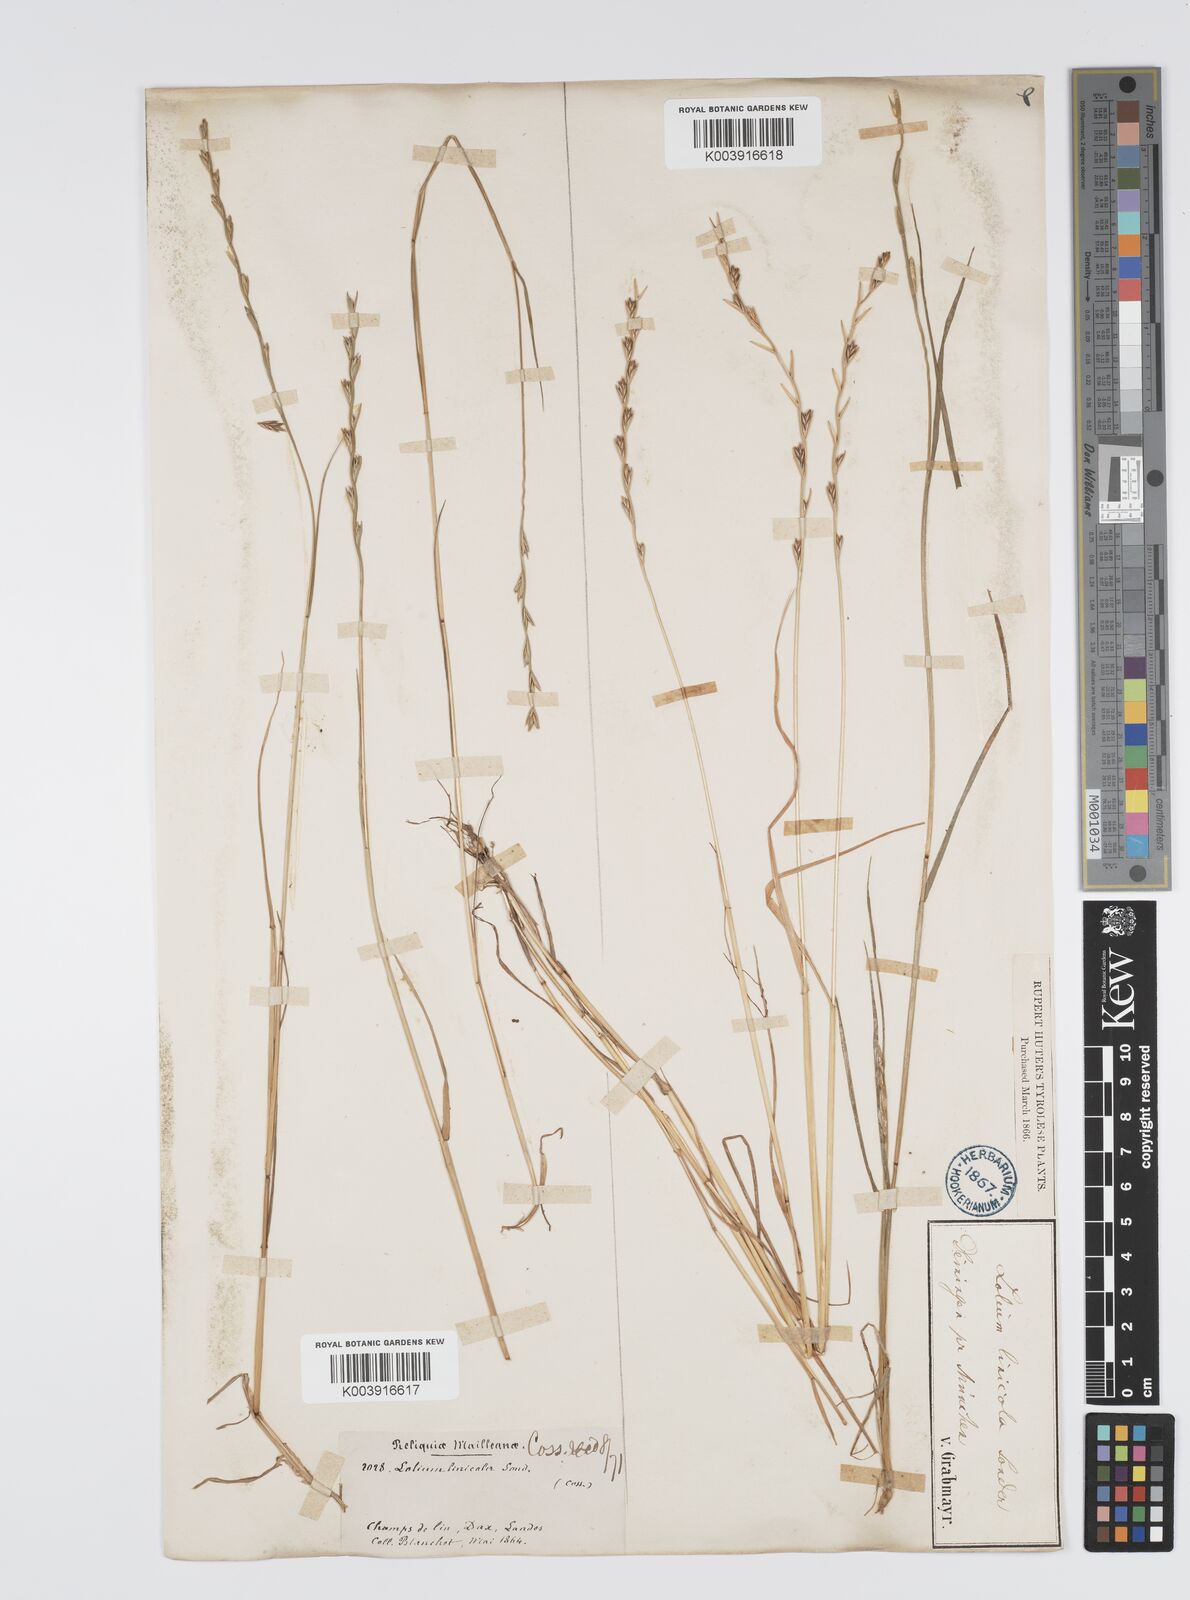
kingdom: Plantae
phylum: Tracheophyta
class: Liliopsida
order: Poales
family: Poaceae
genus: Lolium
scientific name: Lolium remotum
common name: Flaxfield rye-grass
